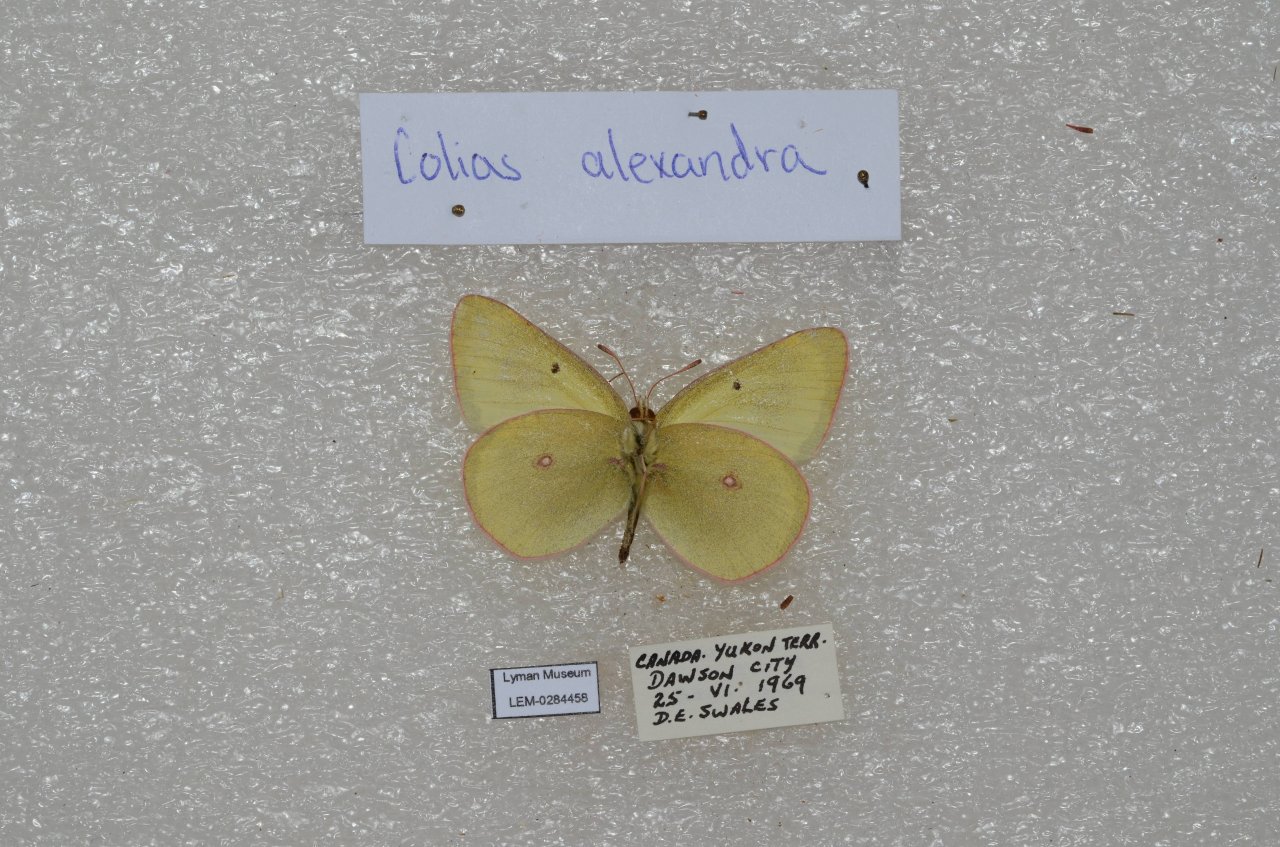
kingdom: Animalia
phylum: Arthropoda
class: Insecta
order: Lepidoptera
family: Pieridae
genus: Colias
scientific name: Colias pelidne
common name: Pelidne Sulphur
